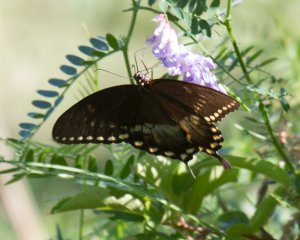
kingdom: Animalia
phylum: Arthropoda
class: Insecta
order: Lepidoptera
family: Papilionidae
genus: Pterourus
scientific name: Pterourus troilus
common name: Spicebush Swallowtail
